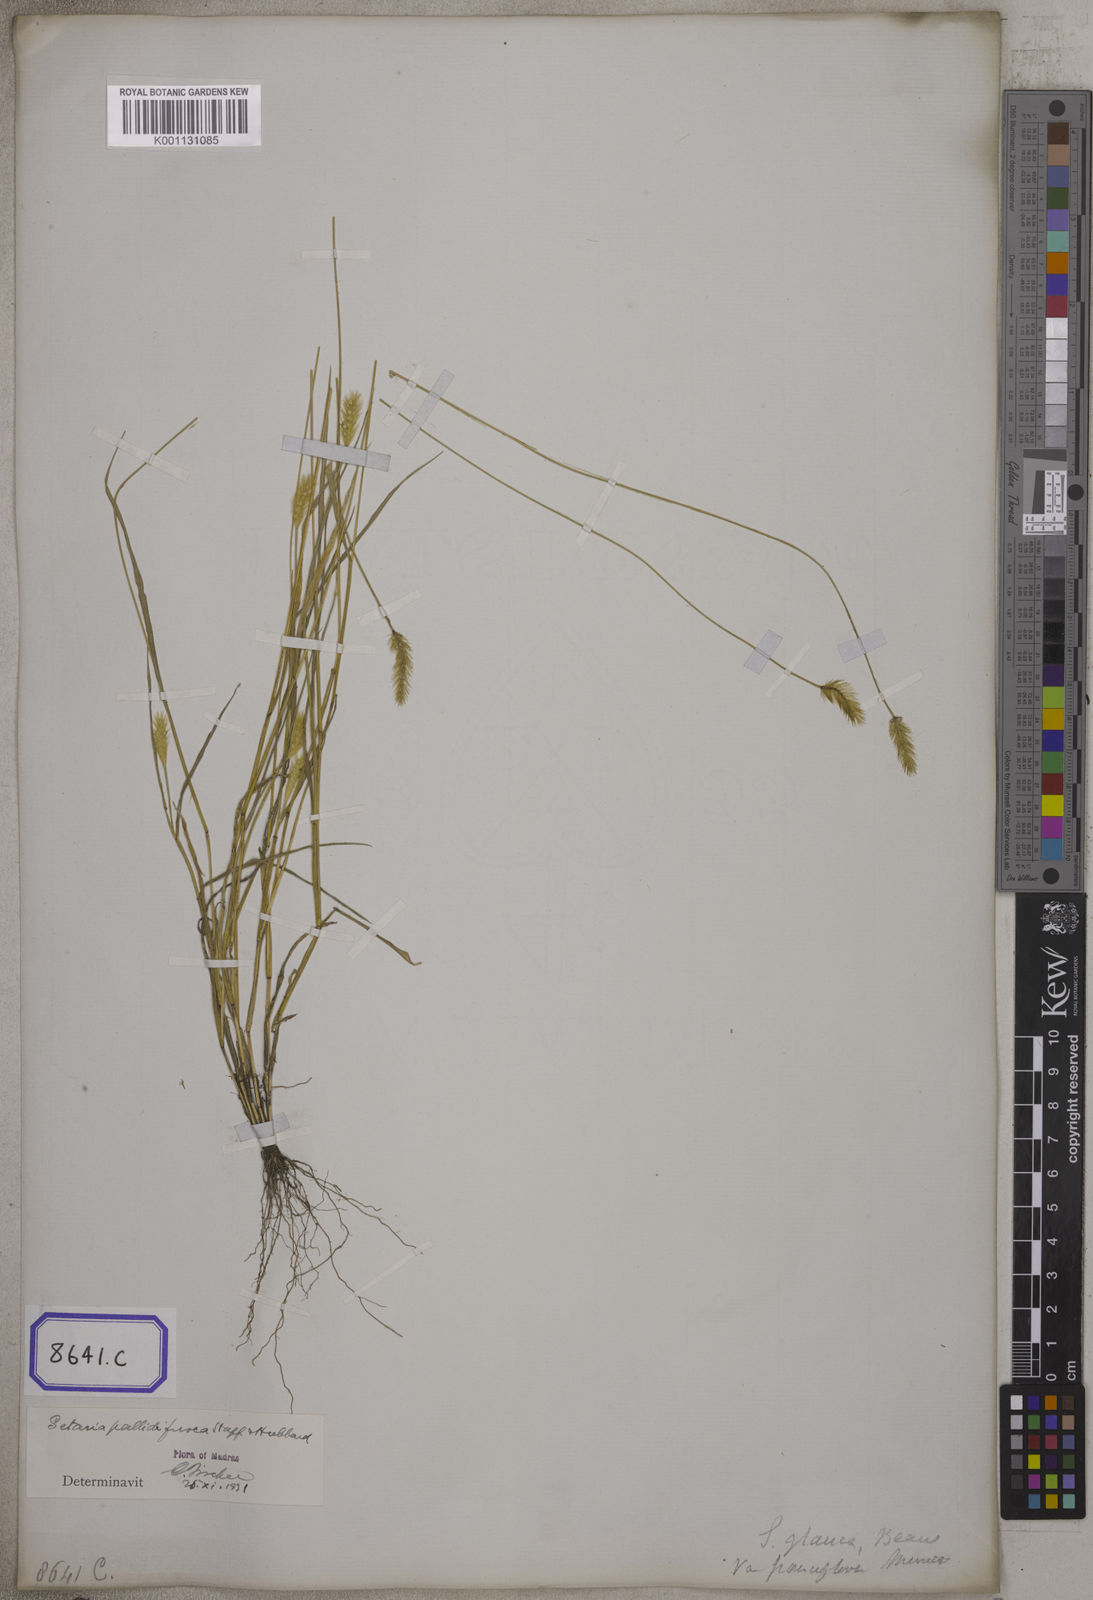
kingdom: Plantae
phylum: Tracheophyta
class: Liliopsida
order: Poales
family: Poaceae
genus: Setaria
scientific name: Setaria parviflora
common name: Knotroot bristle-grass
